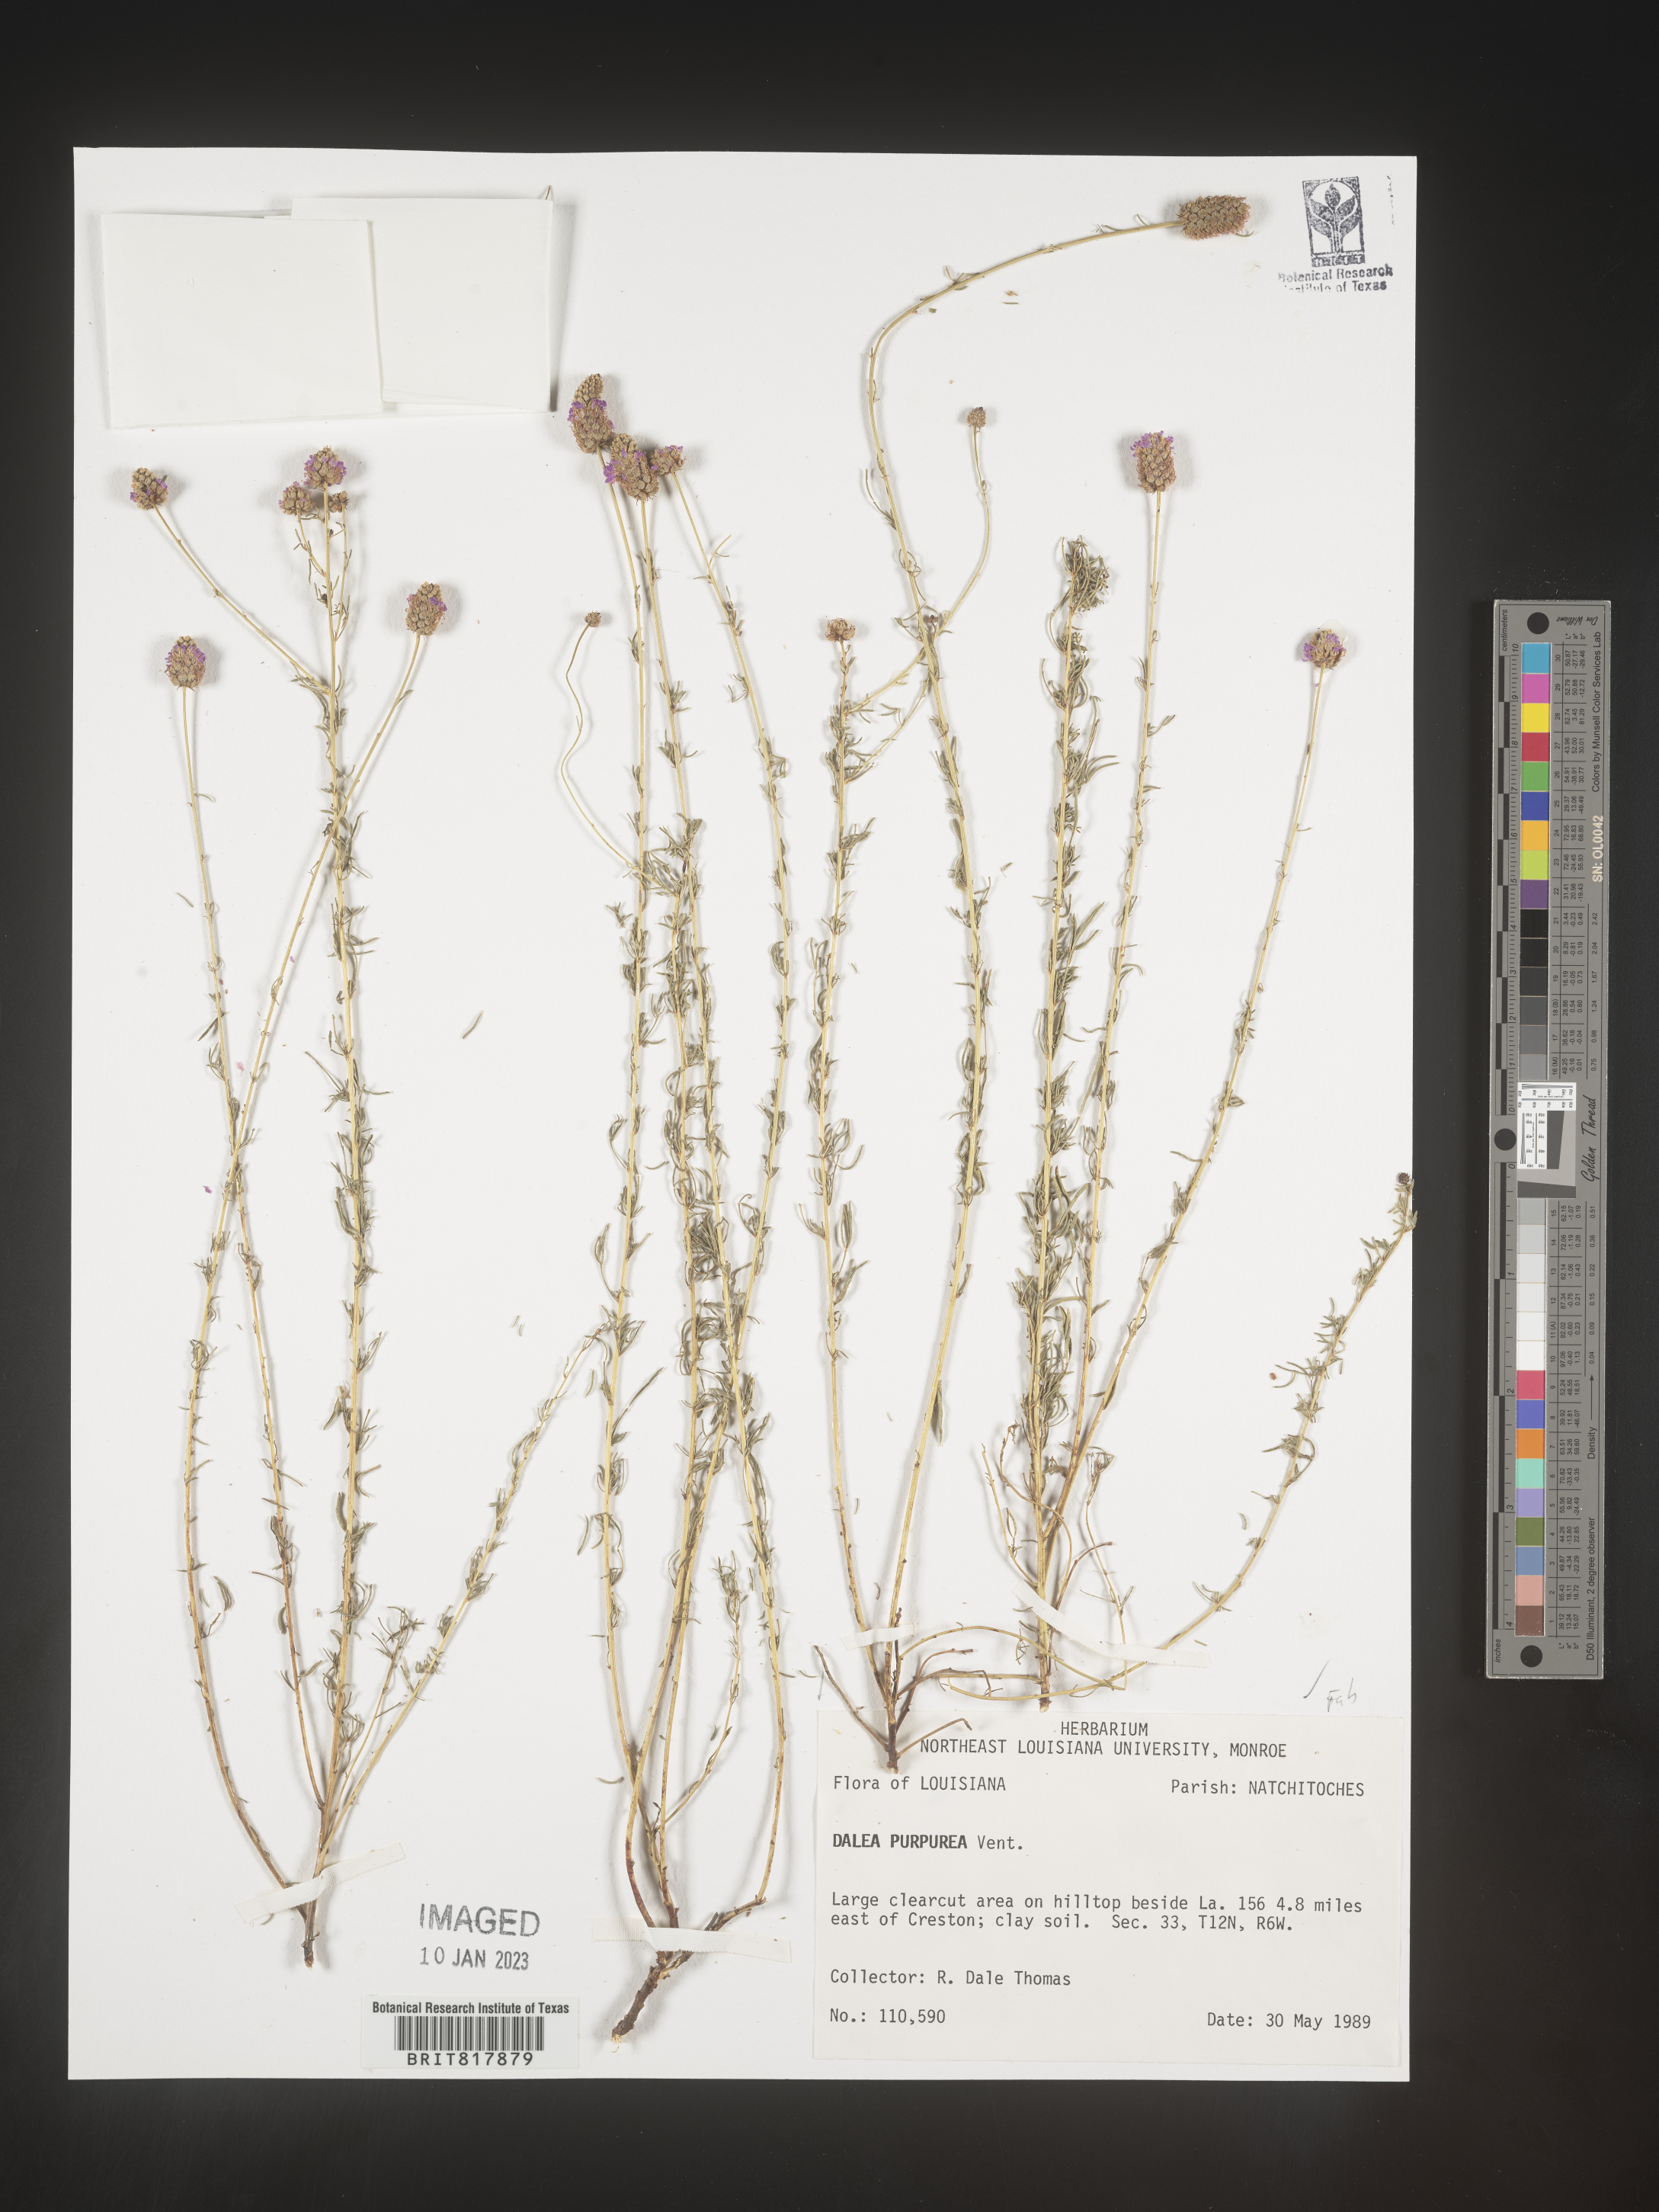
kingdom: Plantae
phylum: Tracheophyta
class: Magnoliopsida
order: Fabales
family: Fabaceae
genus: Dalea
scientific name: Dalea purpurea
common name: Purple prairie-clover
